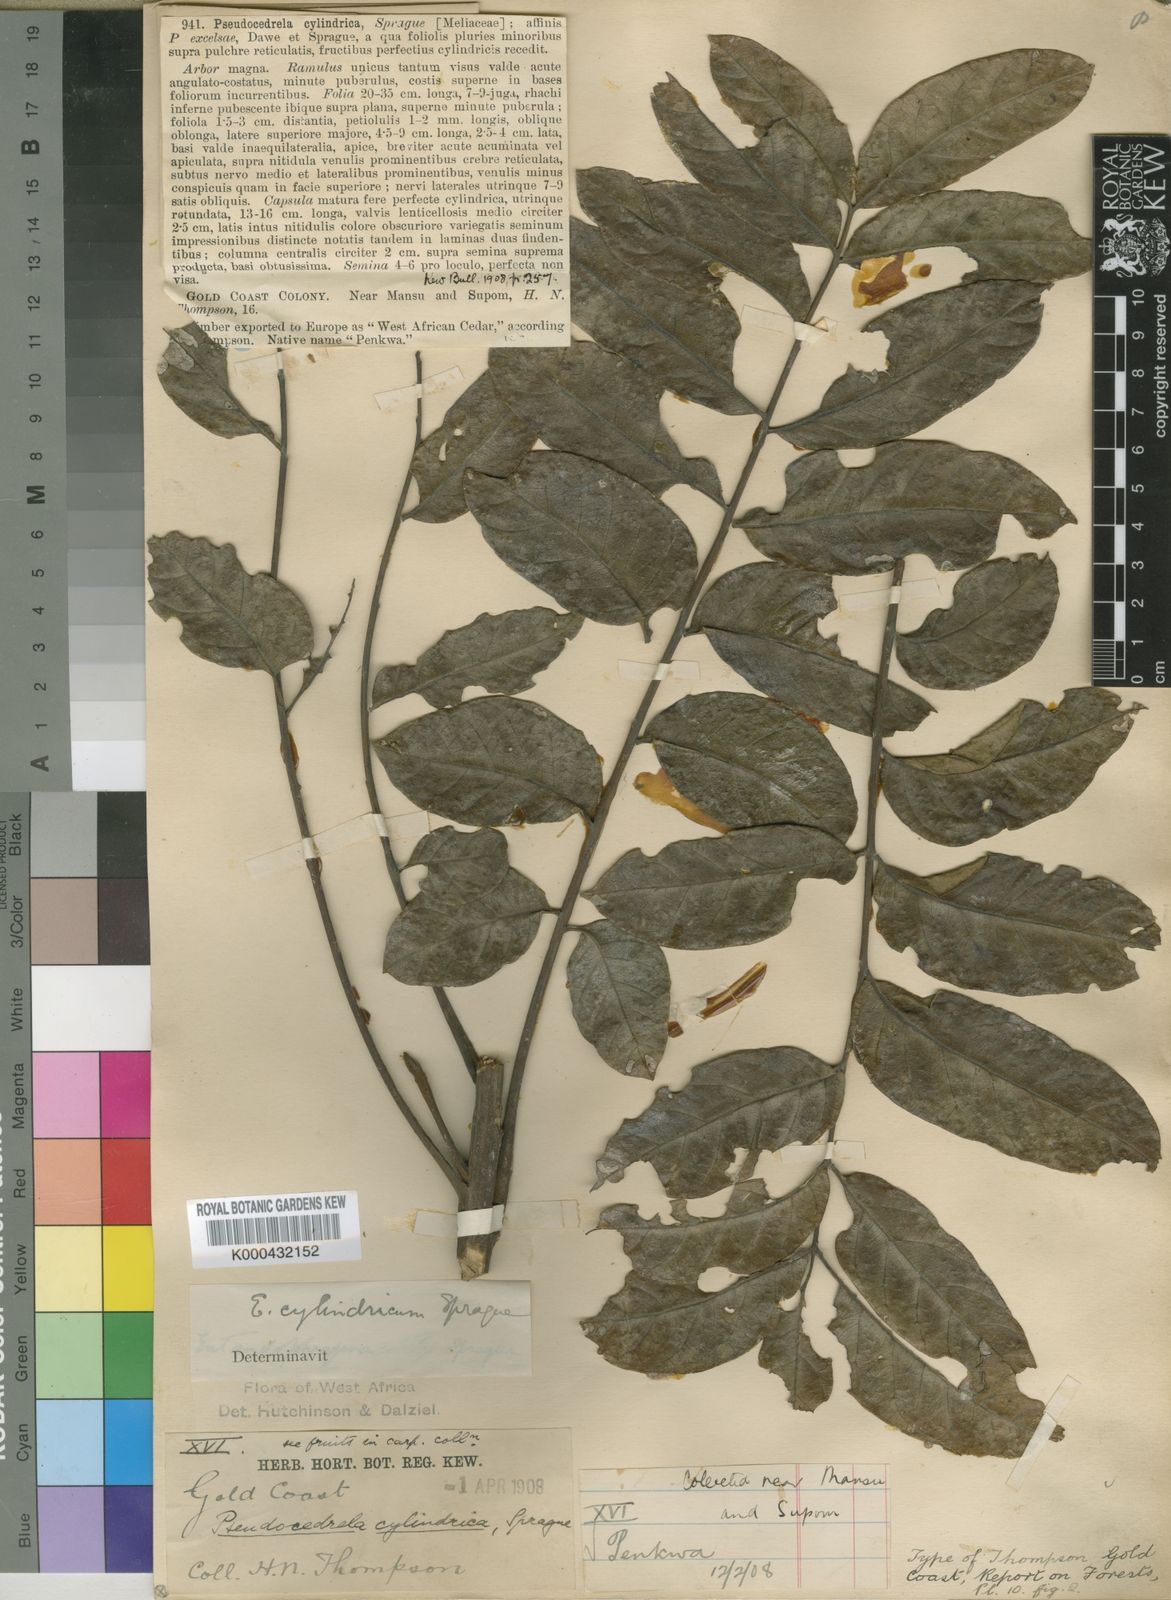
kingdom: Plantae
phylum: Tracheophyta
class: Magnoliopsida
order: Sapindales
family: Meliaceae
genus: Entandrophragma
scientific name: Entandrophragma cylindricum
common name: Sapele
